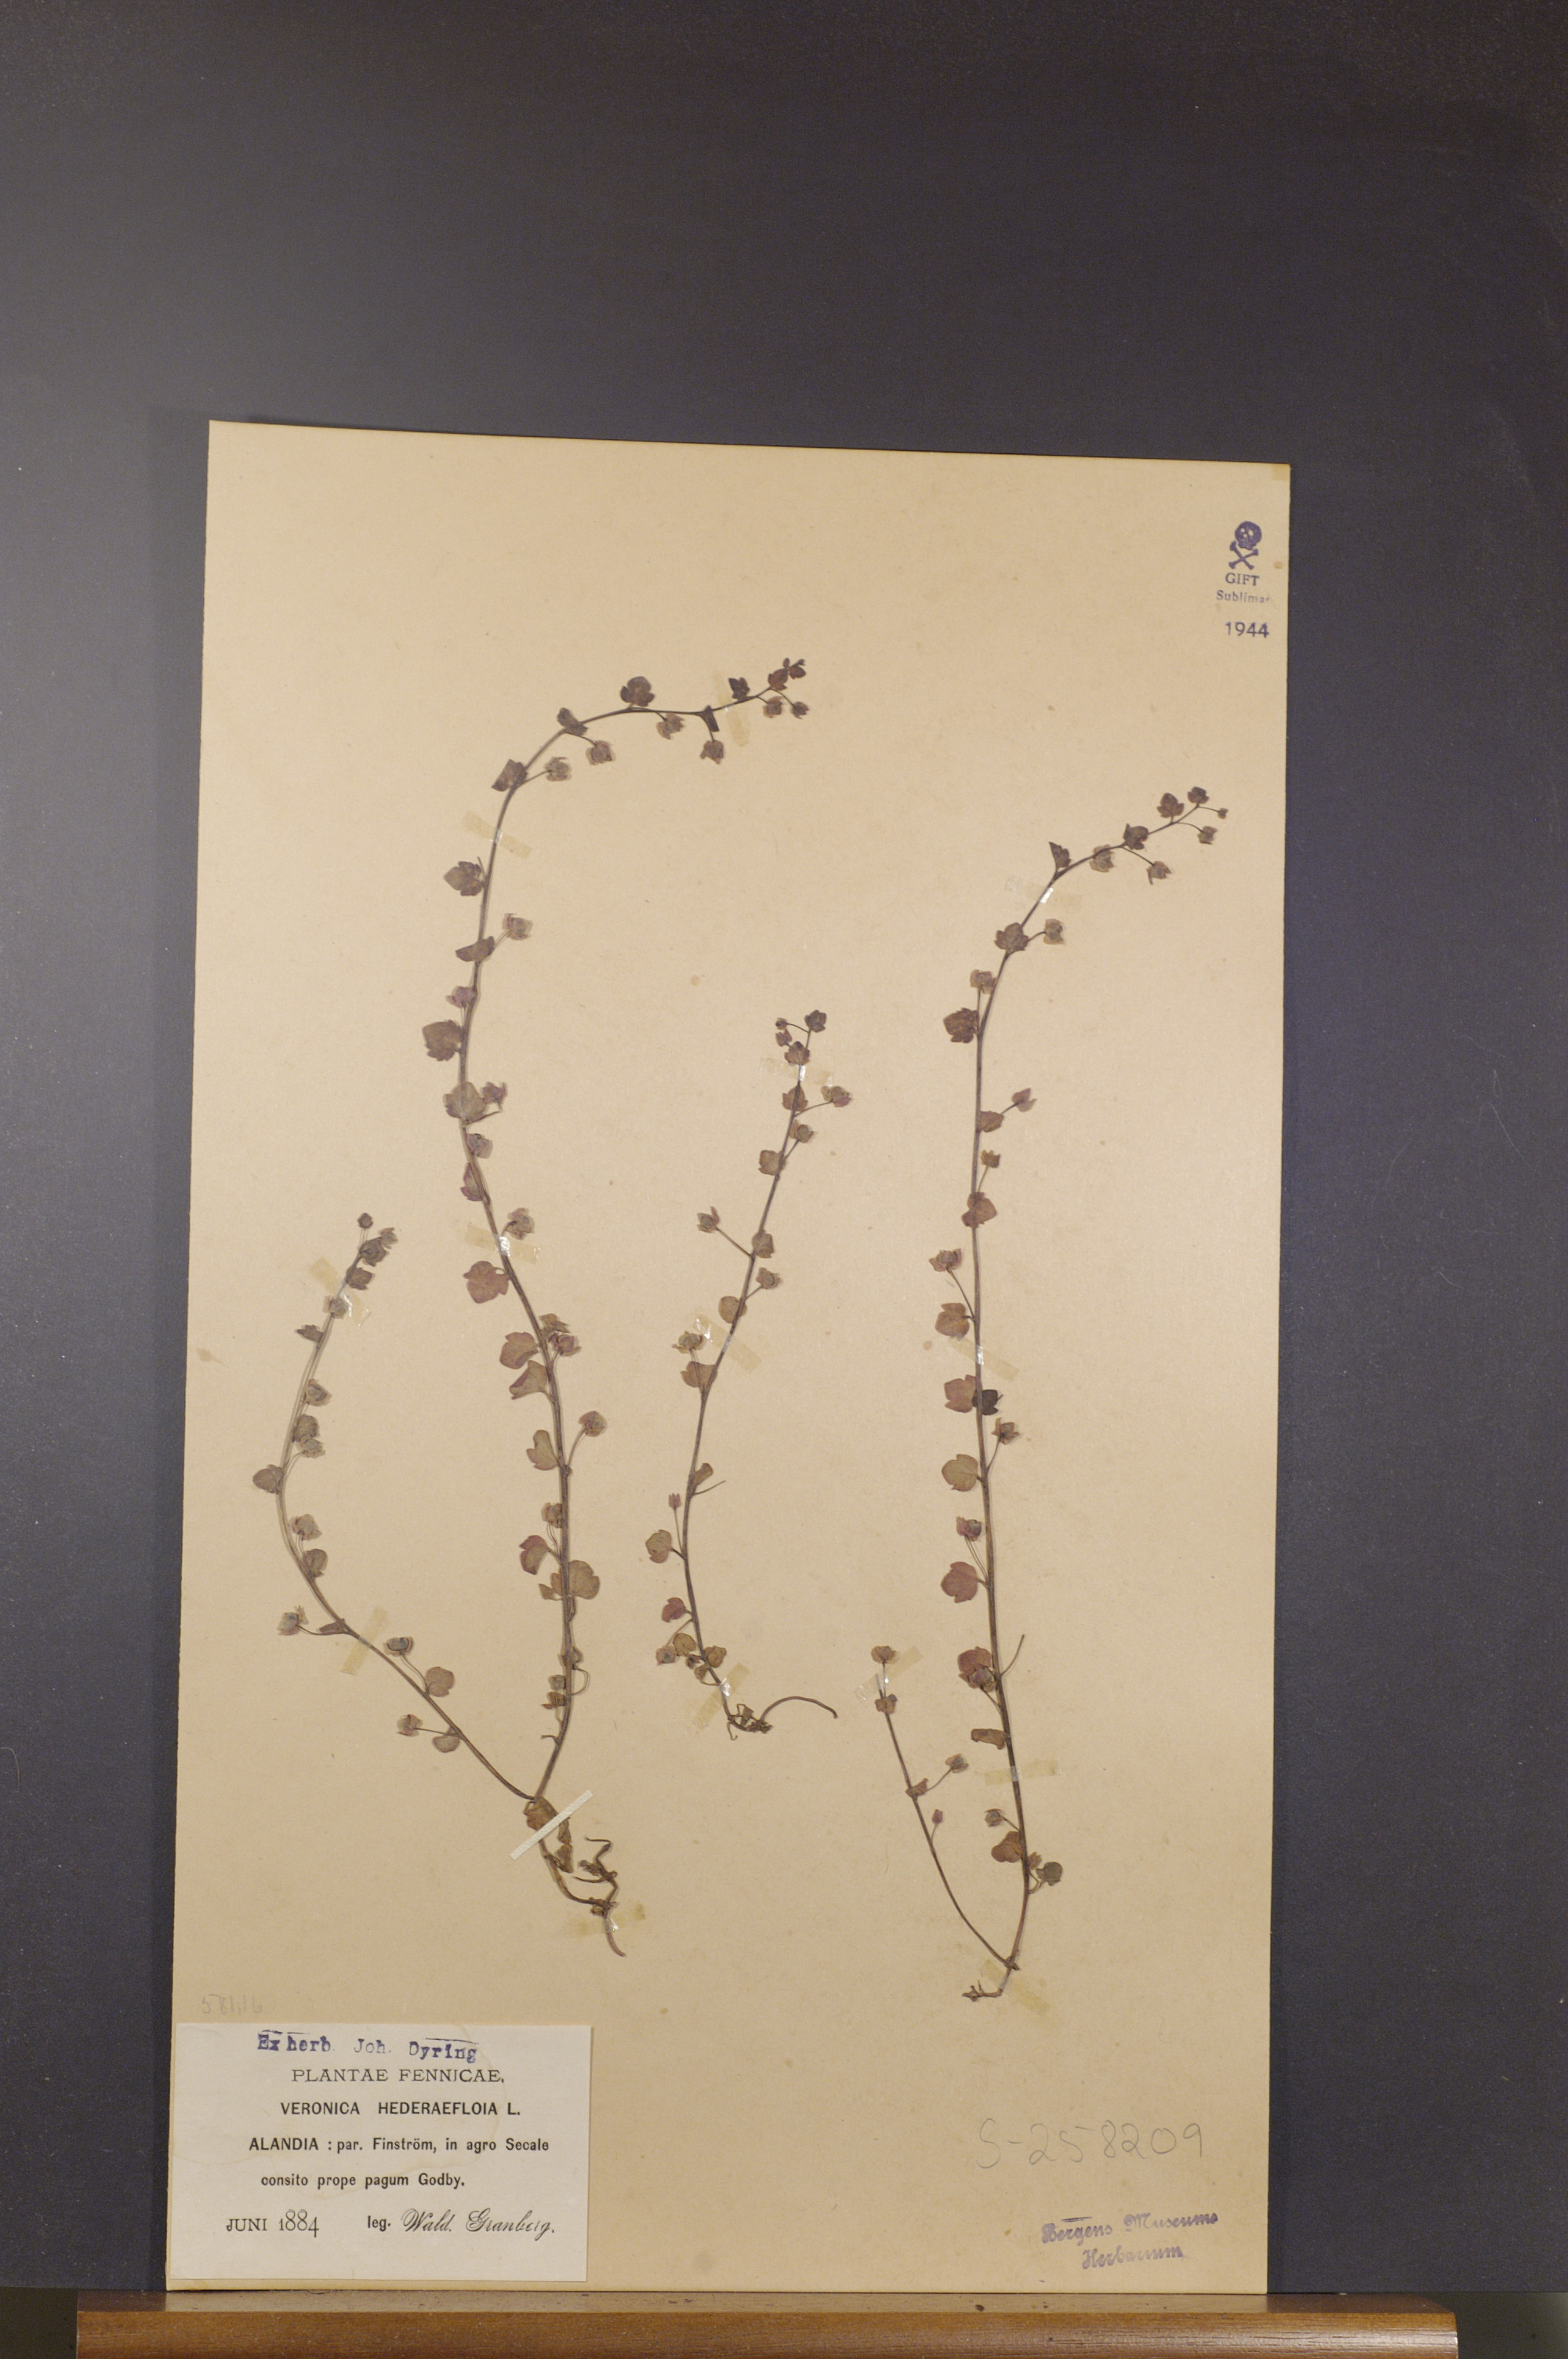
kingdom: Plantae
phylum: Tracheophyta
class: Magnoliopsida
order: Lamiales
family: Plantaginaceae
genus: Veronica
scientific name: Veronica hederifolia
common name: Ivy-leaved speedwell
